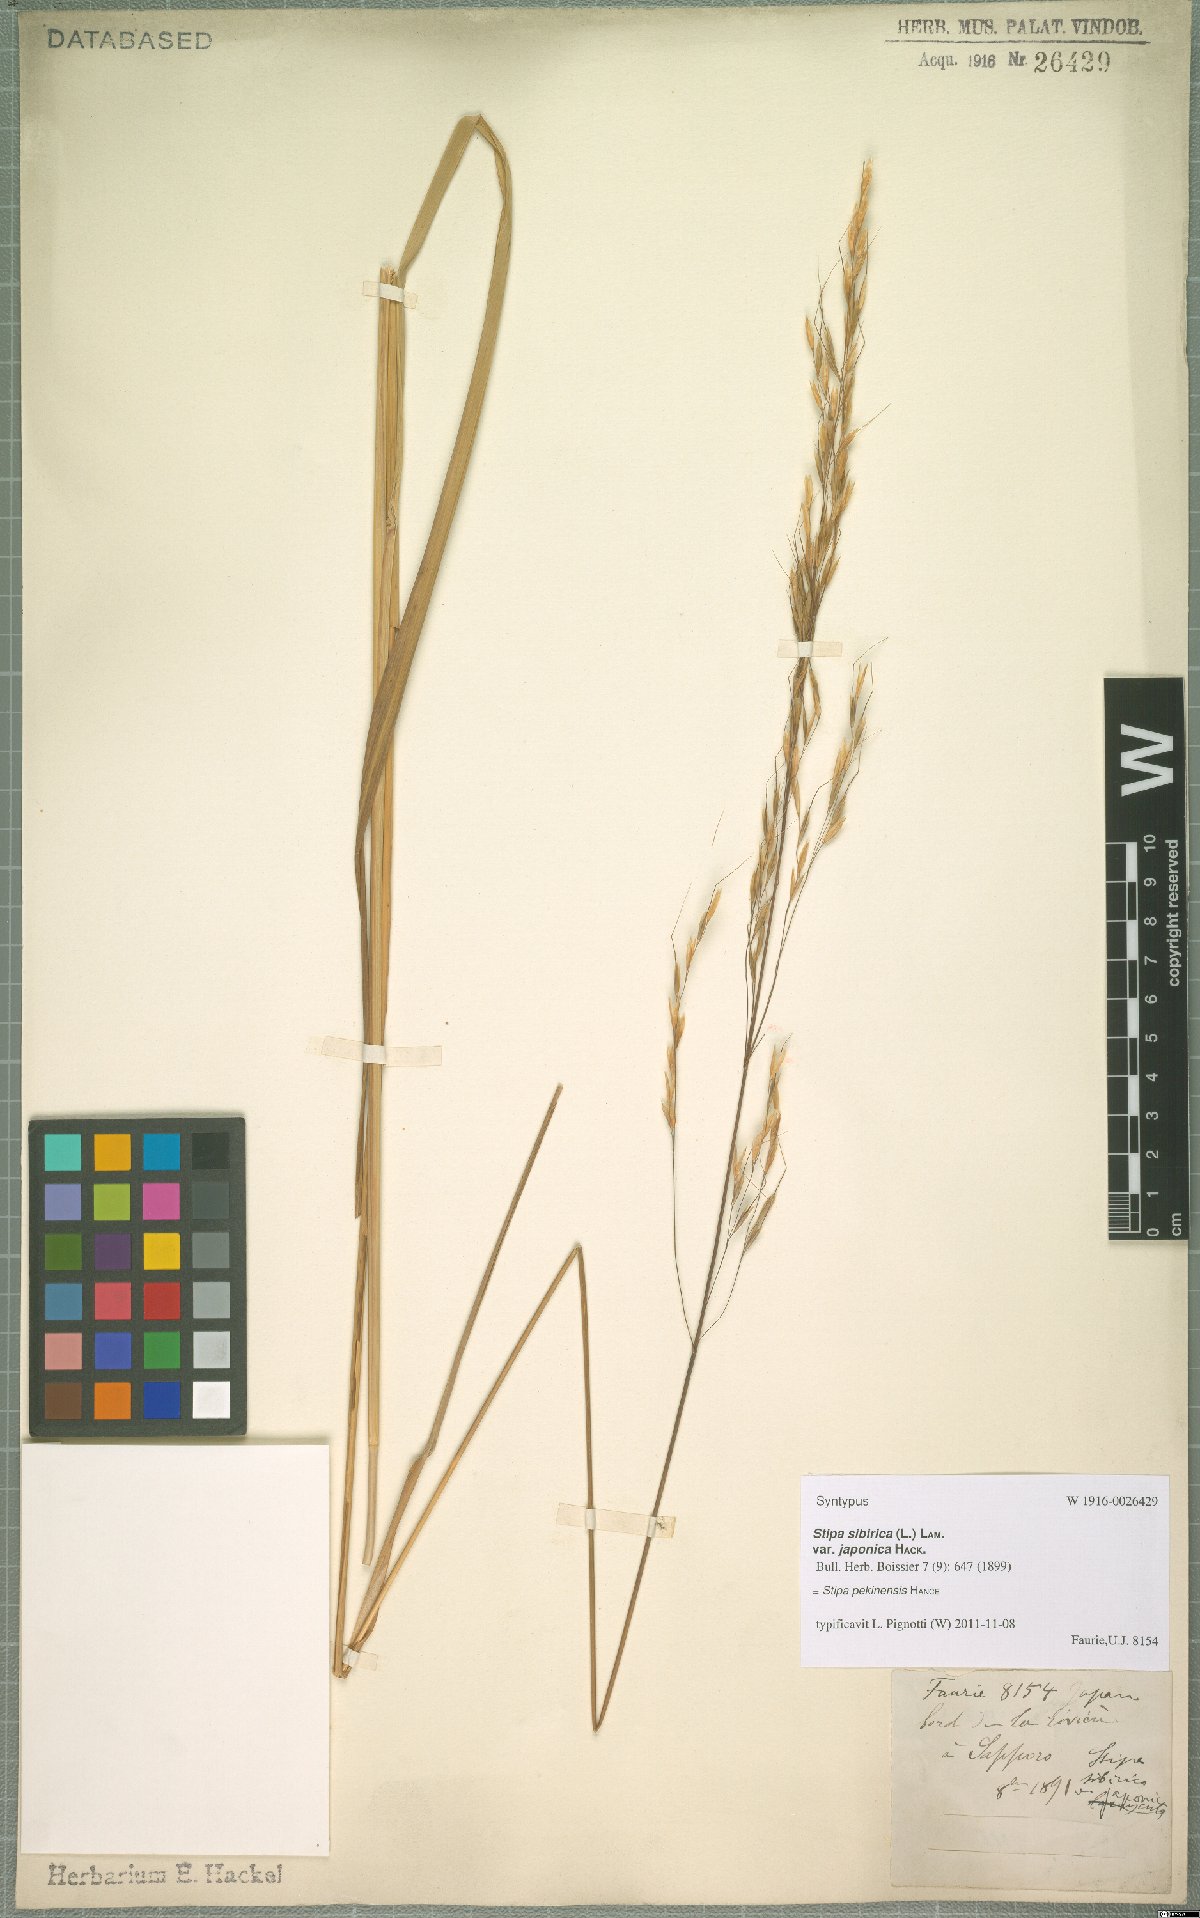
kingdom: Plantae
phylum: Tracheophyta
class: Liliopsida
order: Poales
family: Poaceae
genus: Achnatherum
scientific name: Achnatherum pekinense
